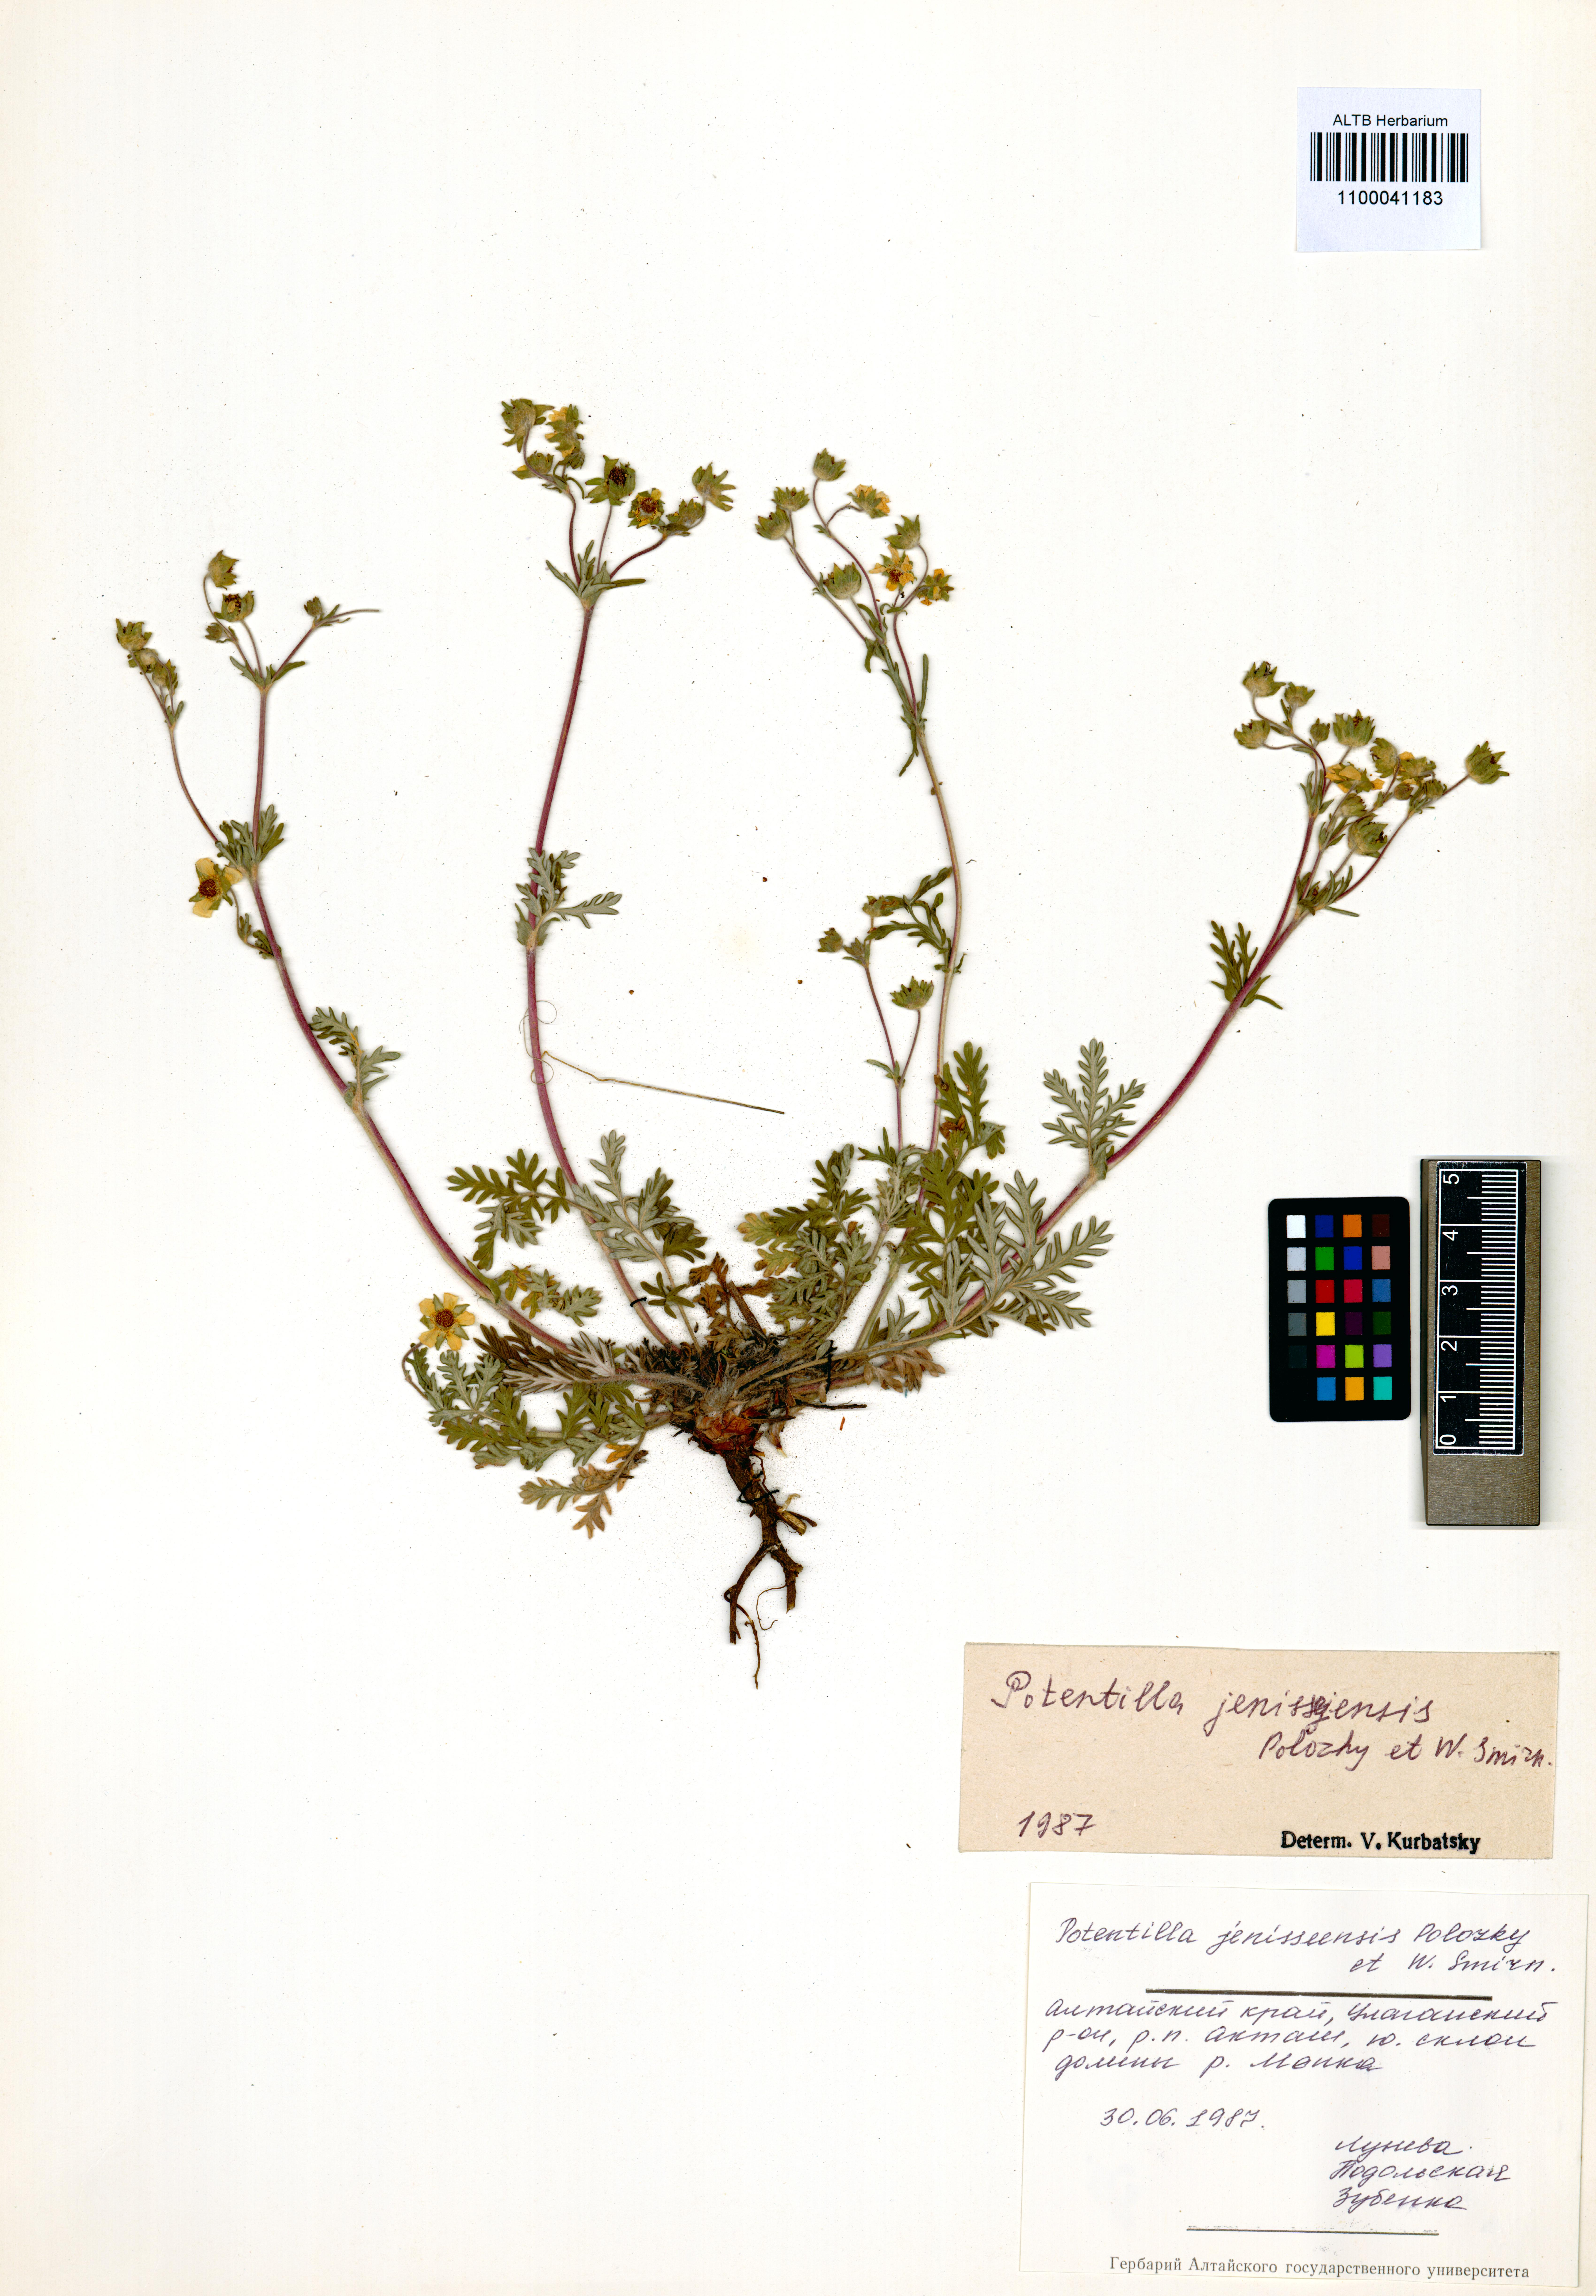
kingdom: Plantae
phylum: Tracheophyta
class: Magnoliopsida
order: Rosales
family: Rosaceae
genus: Potentilla
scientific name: Potentilla jenissejensis
